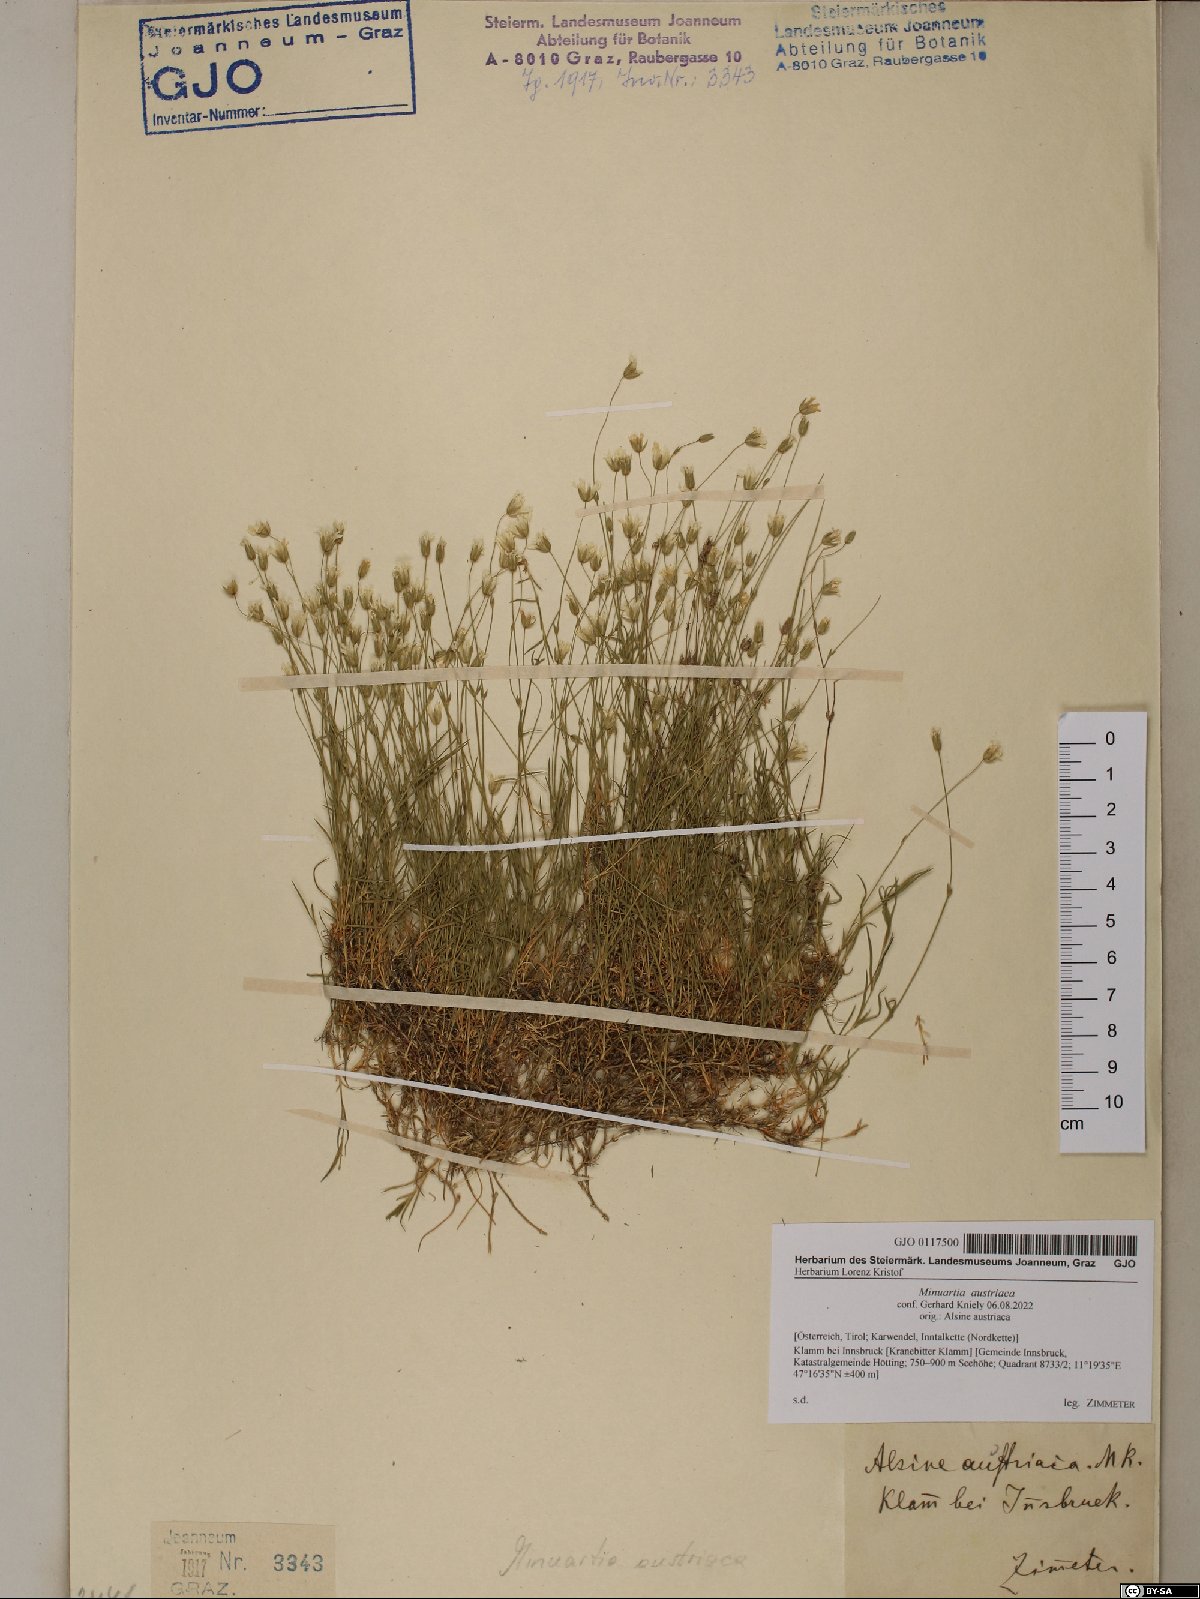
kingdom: Plantae
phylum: Tracheophyta
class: Magnoliopsida
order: Caryophyllales
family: Caryophyllaceae
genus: Sabulina
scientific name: Sabulina austriaca
